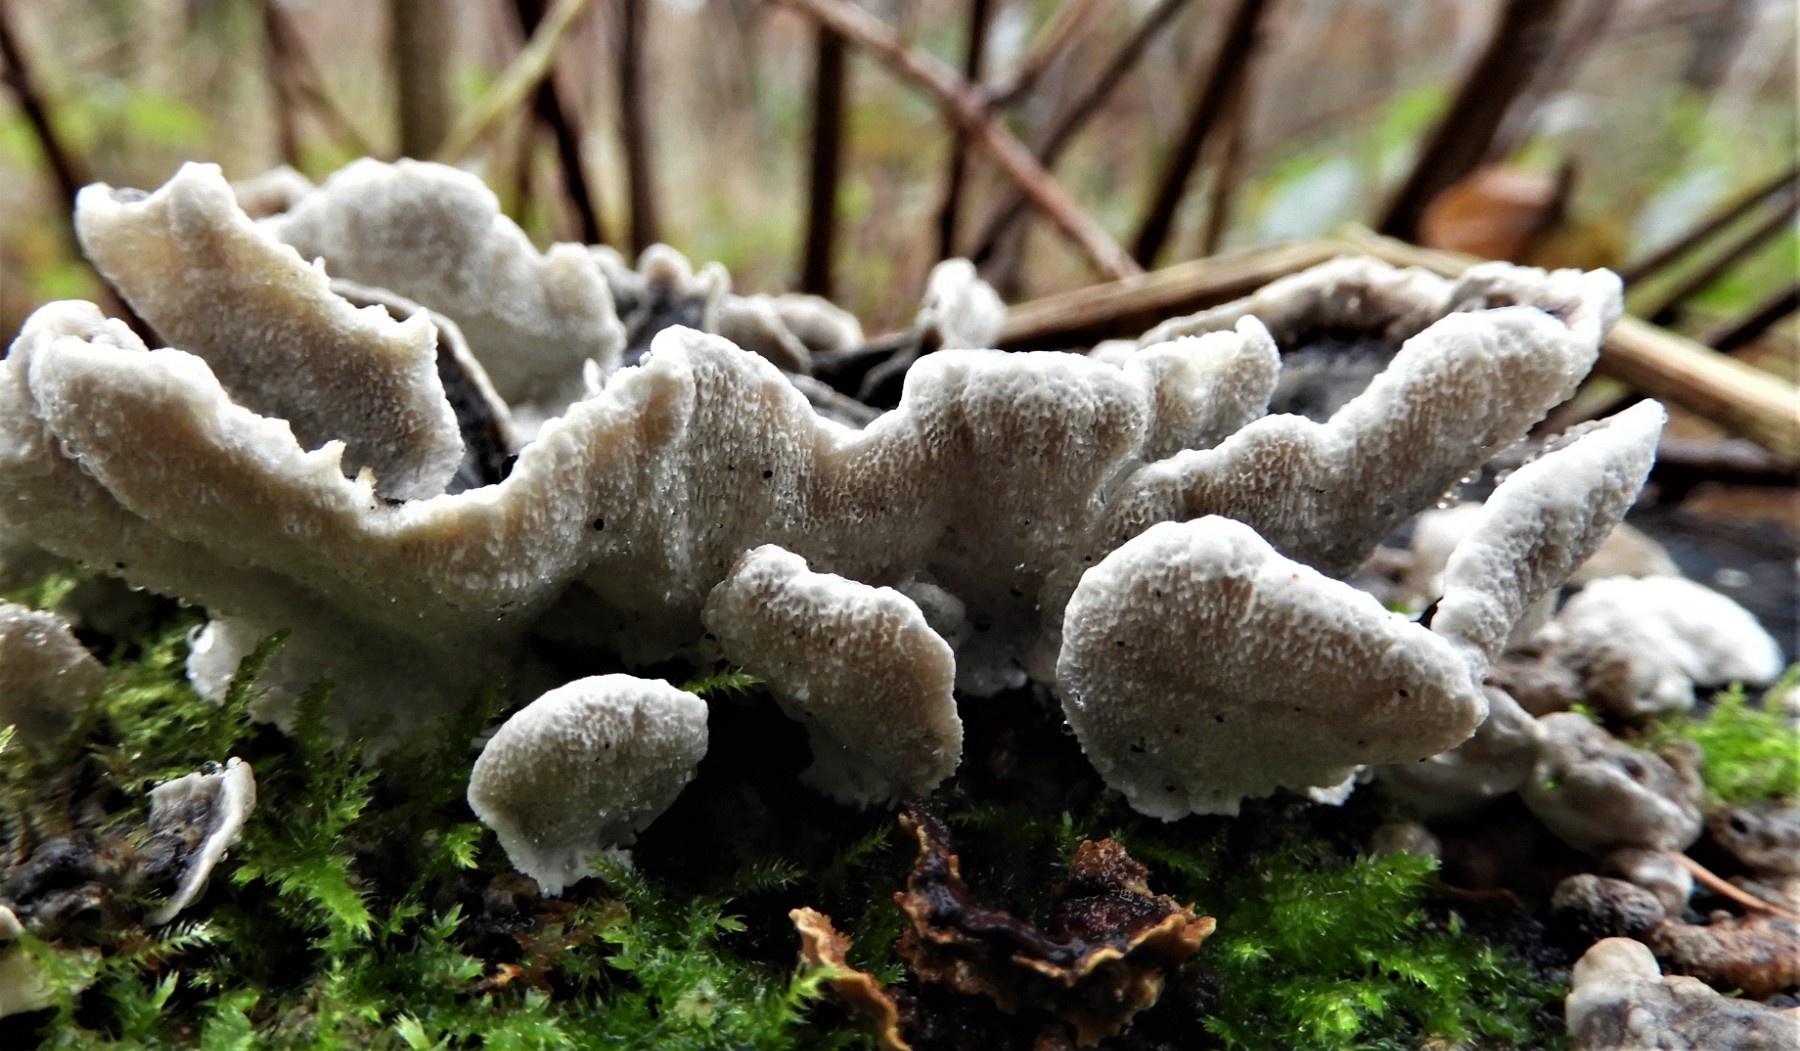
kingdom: Fungi
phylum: Basidiomycota
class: Agaricomycetes
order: Polyporales
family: Polyporaceae
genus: Trametes
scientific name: Trametes versicolor
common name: broget læderporesvamp
